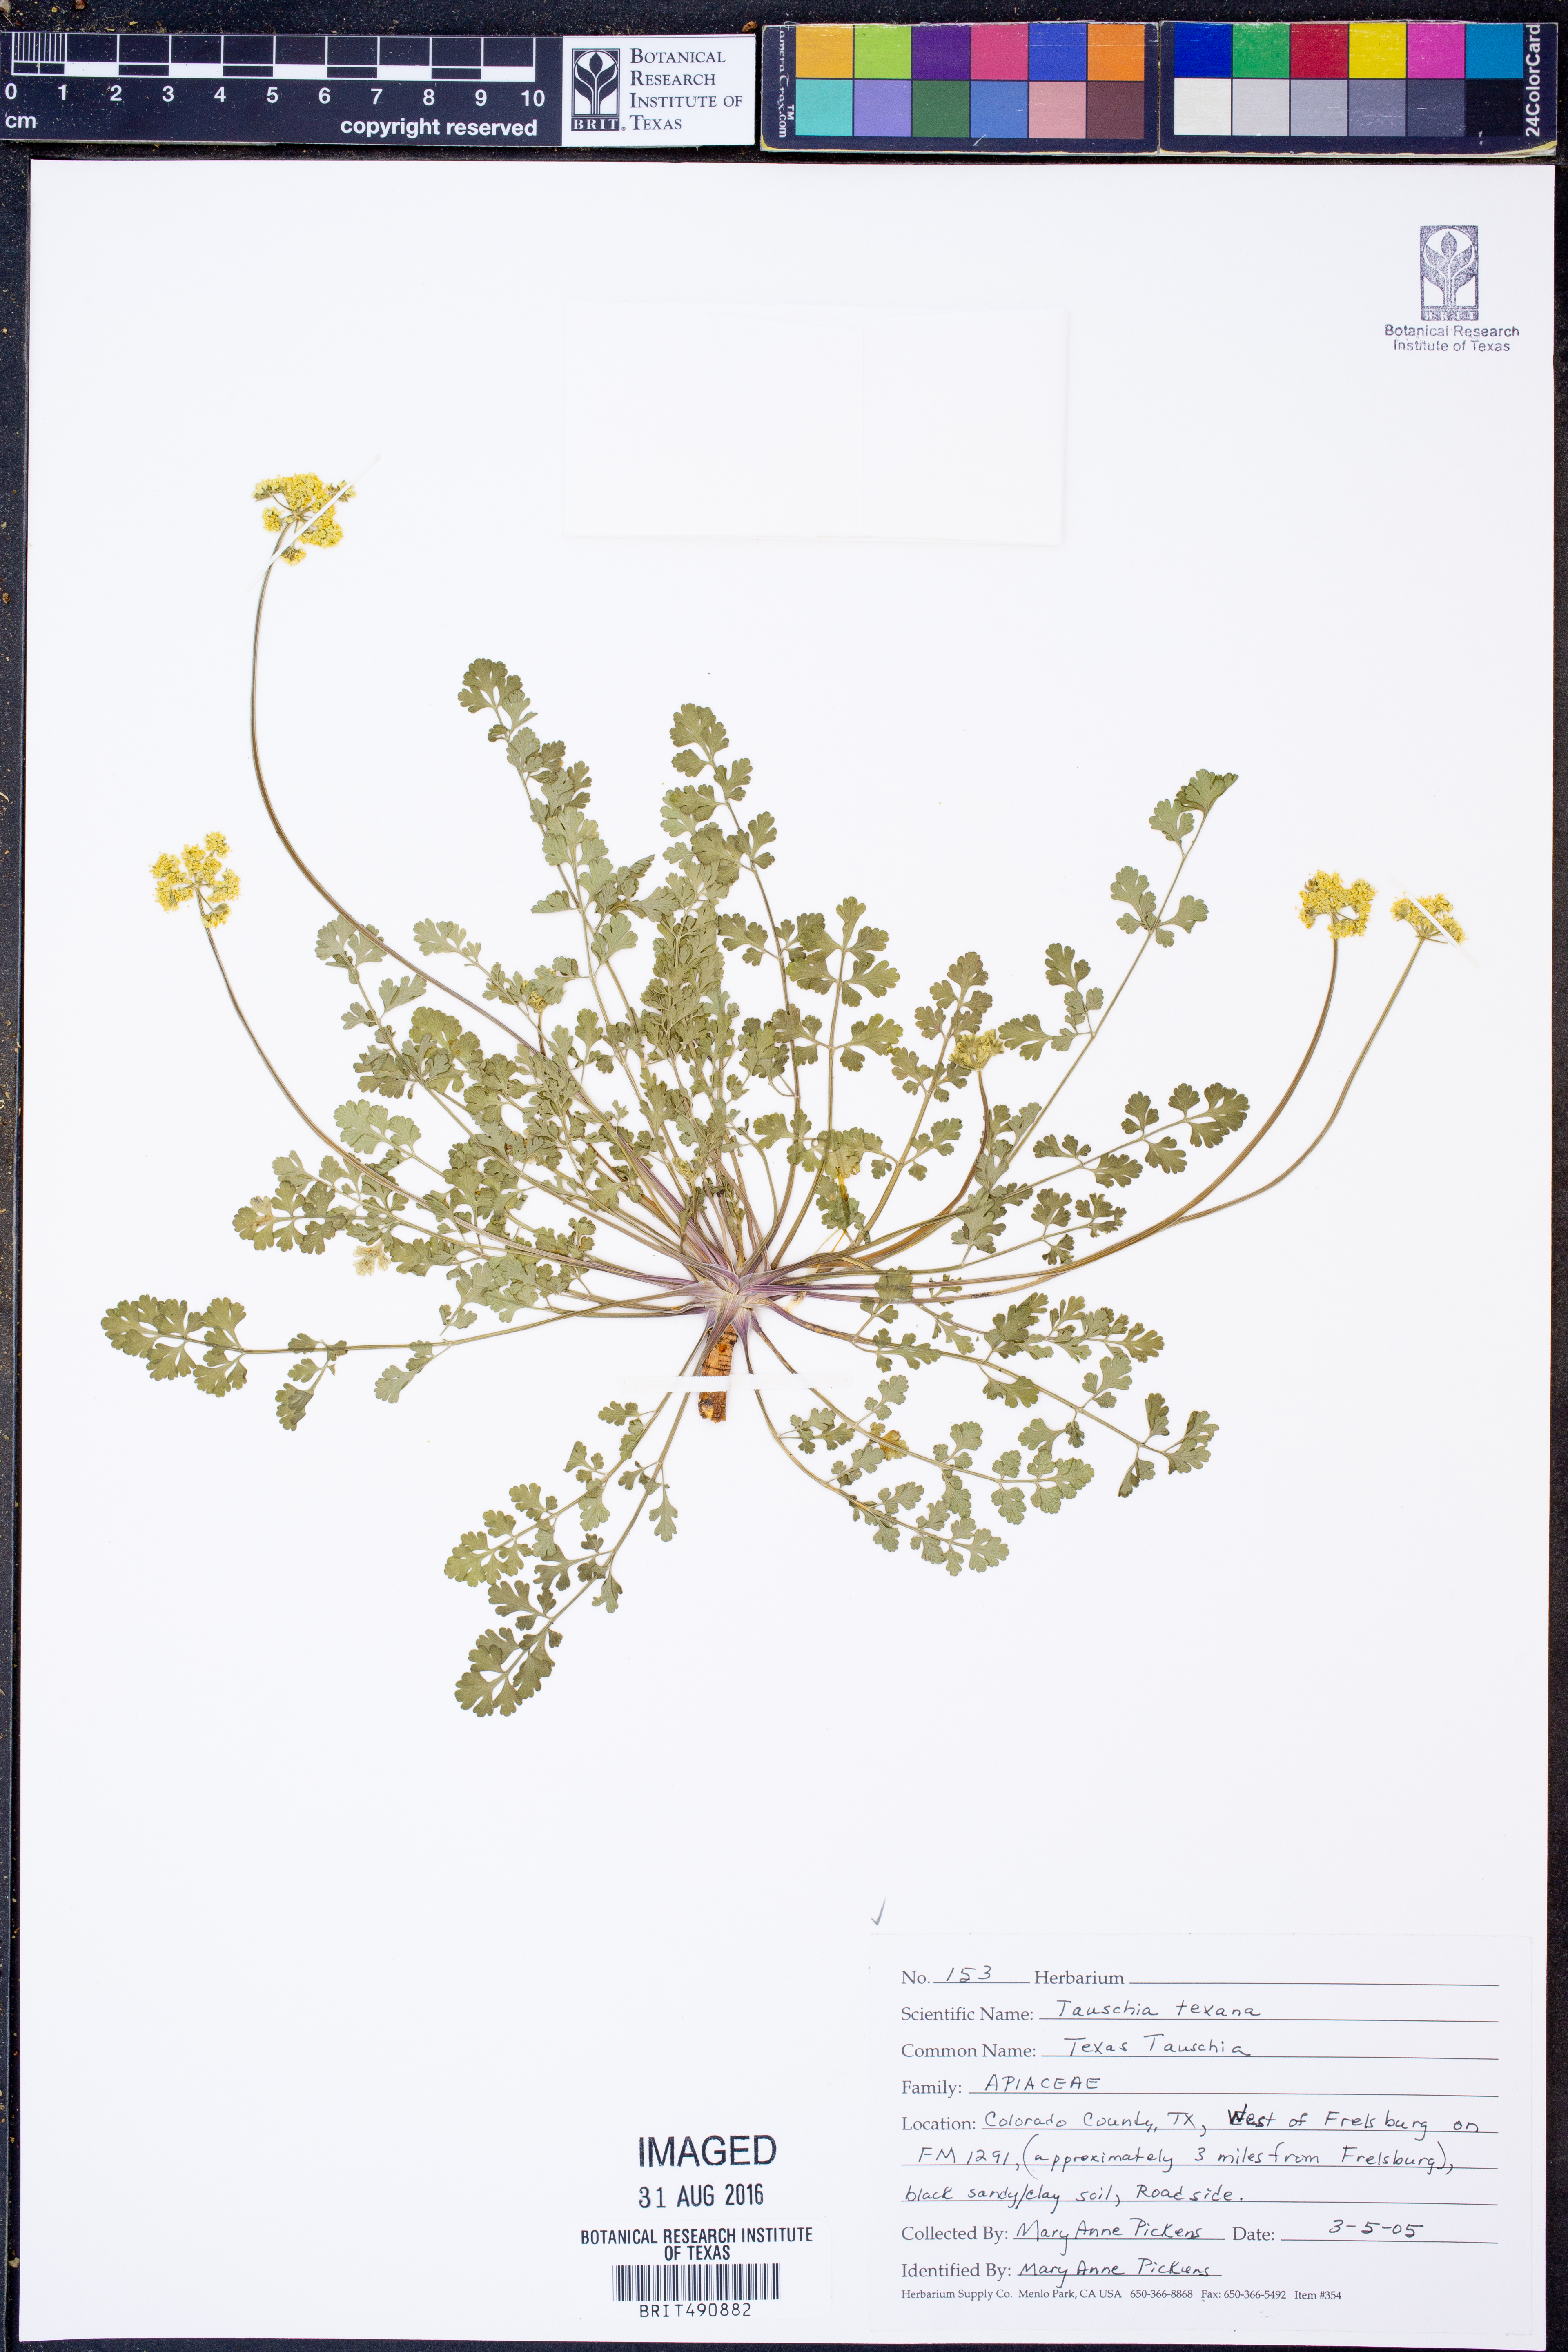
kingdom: Plantae
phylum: Tracheophyta
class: Magnoliopsida
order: Apiales
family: Apiaceae
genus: Tauschia
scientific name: Tauschia texana
